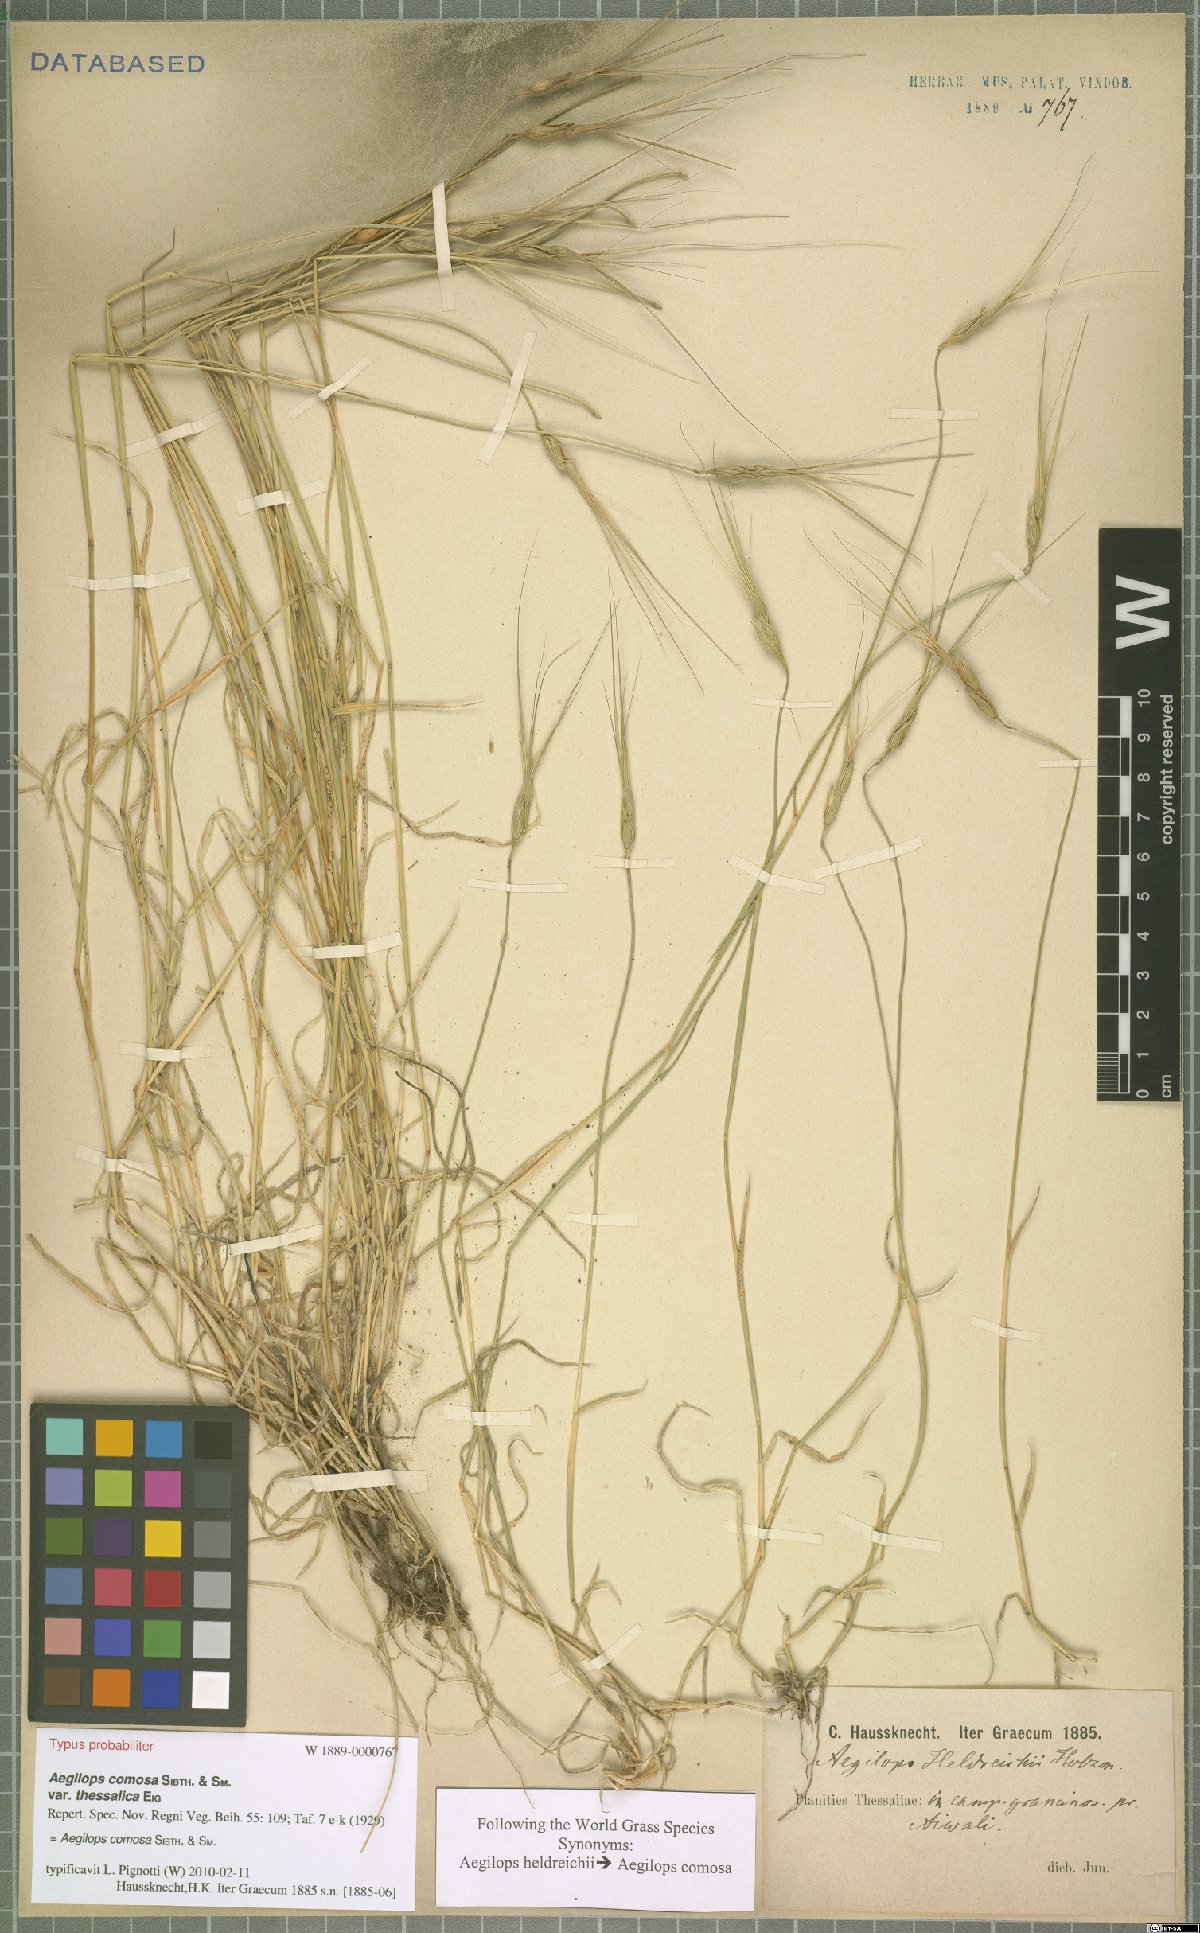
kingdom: Plantae
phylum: Tracheophyta
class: Liliopsida
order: Poales
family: Poaceae
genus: Aegilops
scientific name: Aegilops comosa
